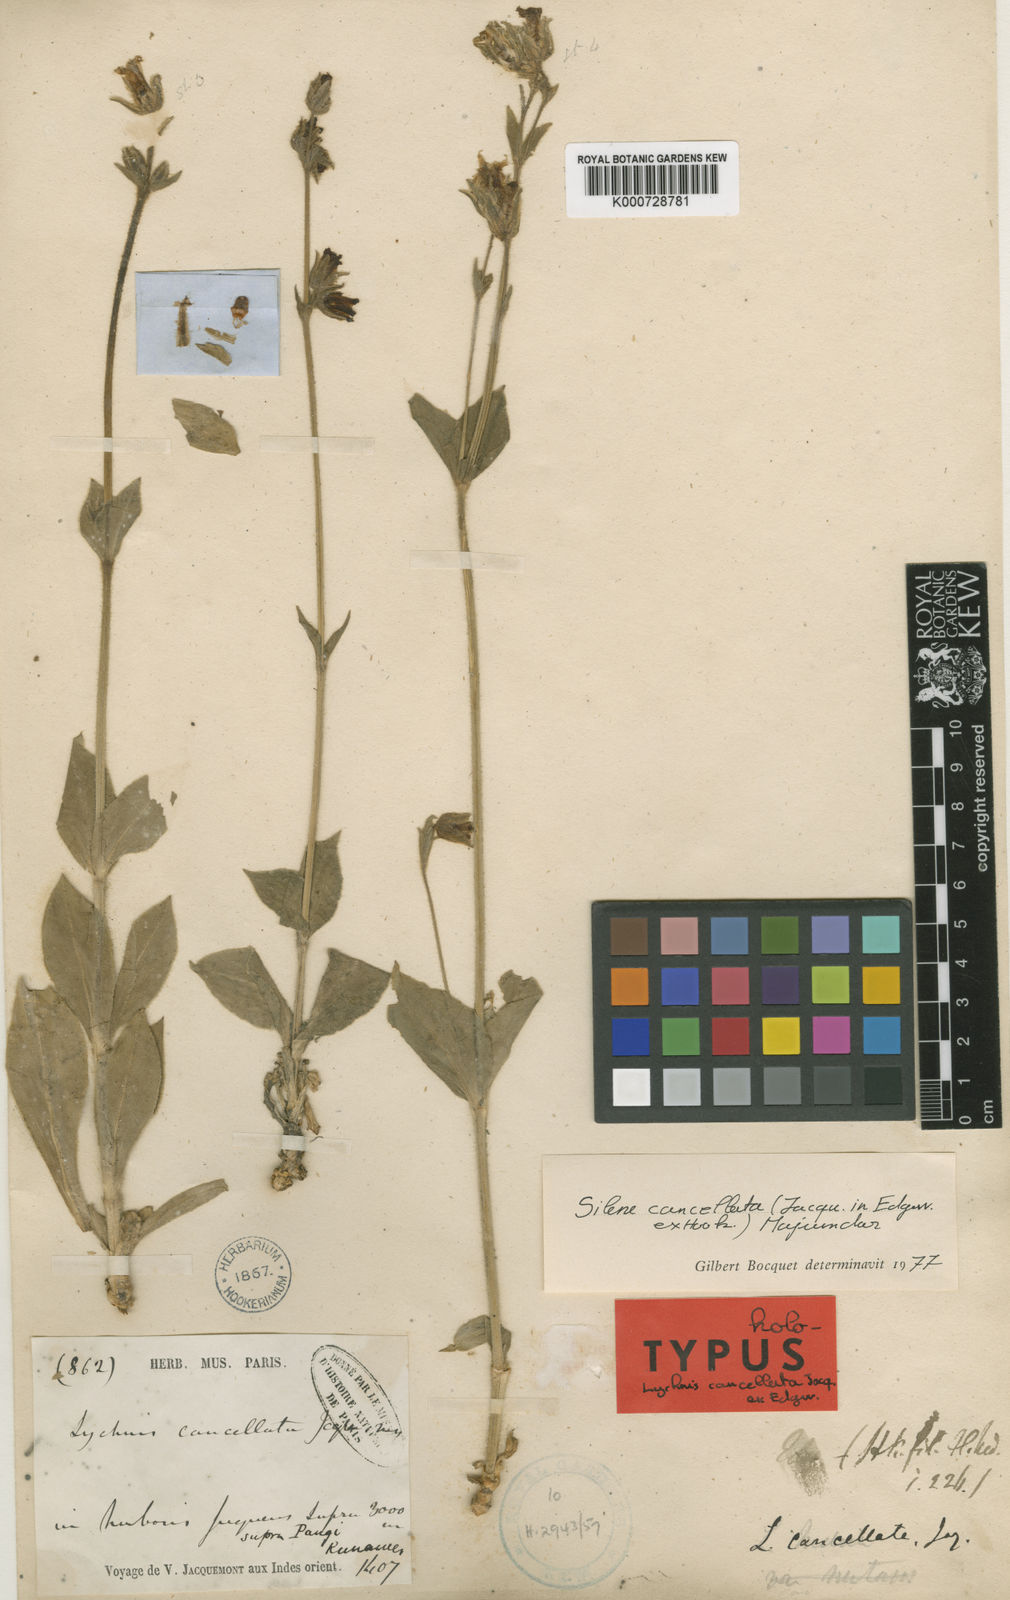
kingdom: Plantae
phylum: Tracheophyta
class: Magnoliopsida
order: Caryophyllales
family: Caryophyllaceae
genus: Silene
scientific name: Silene cancellata
